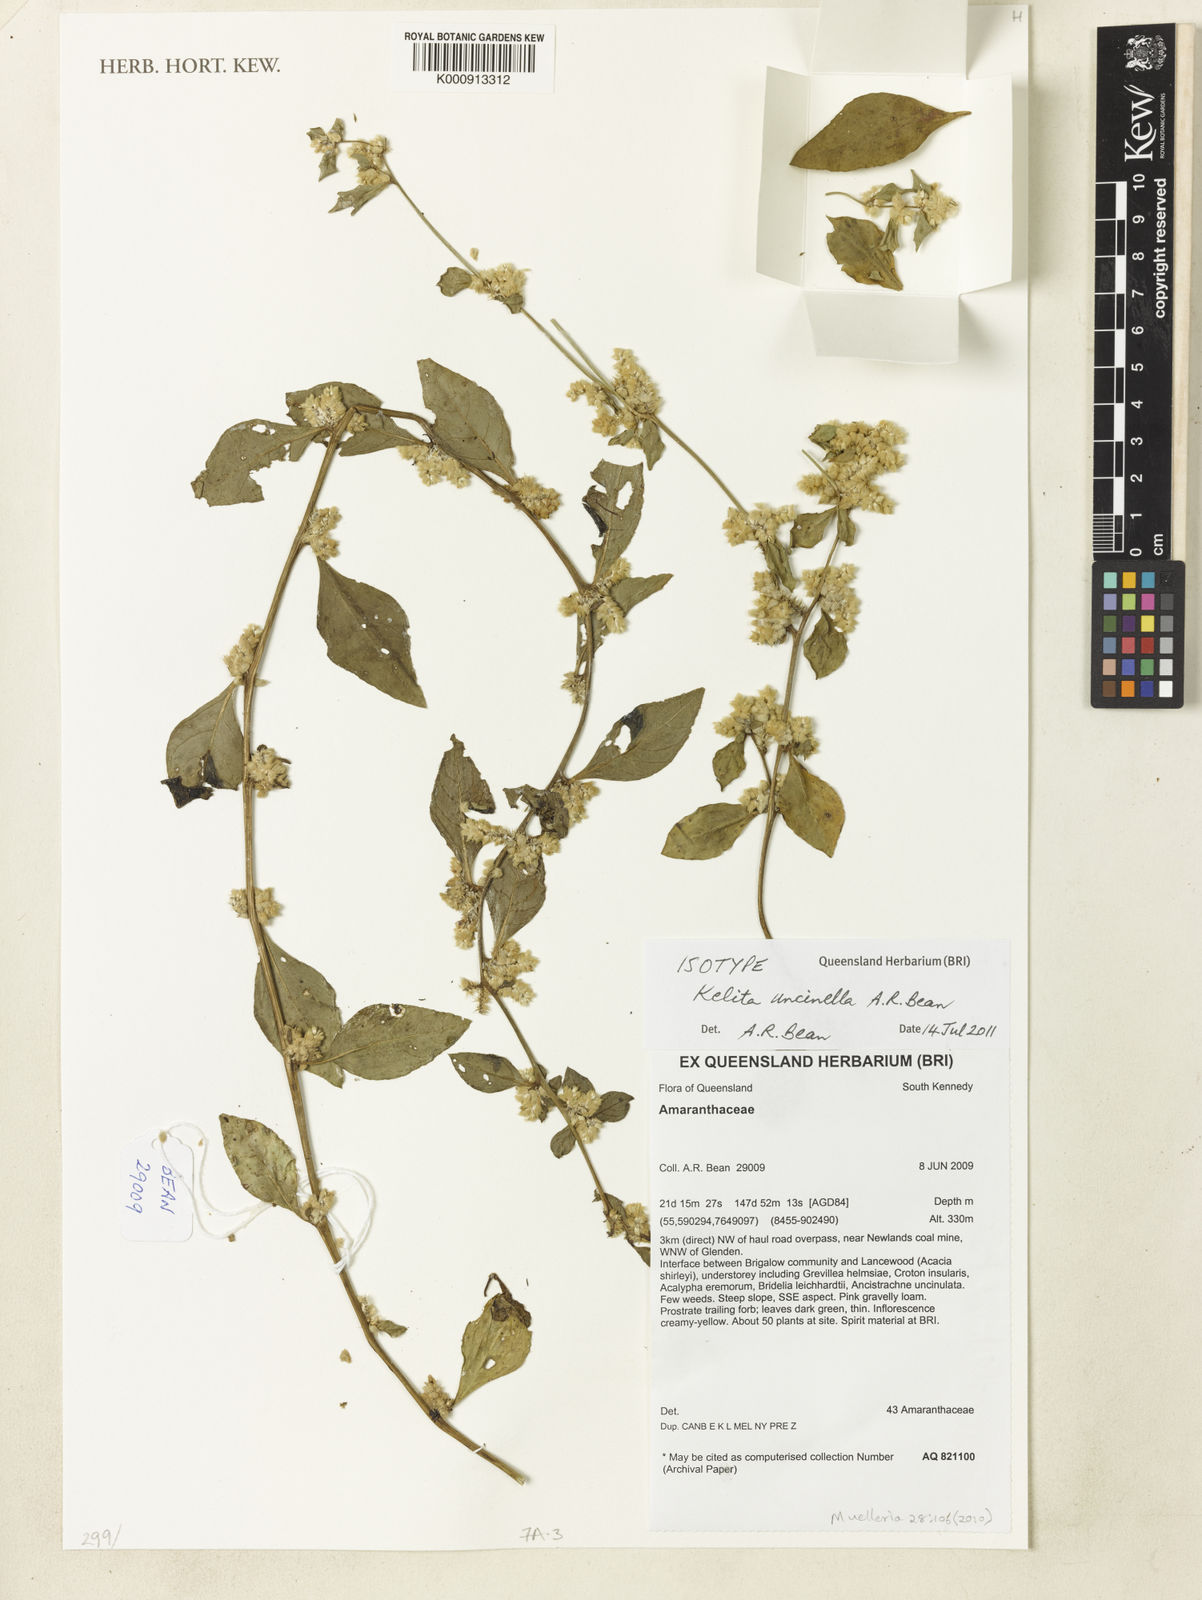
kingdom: Animalia
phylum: Arthropoda
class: Insecta
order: Hymenoptera
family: Apidae
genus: Kelita
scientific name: Kelita
